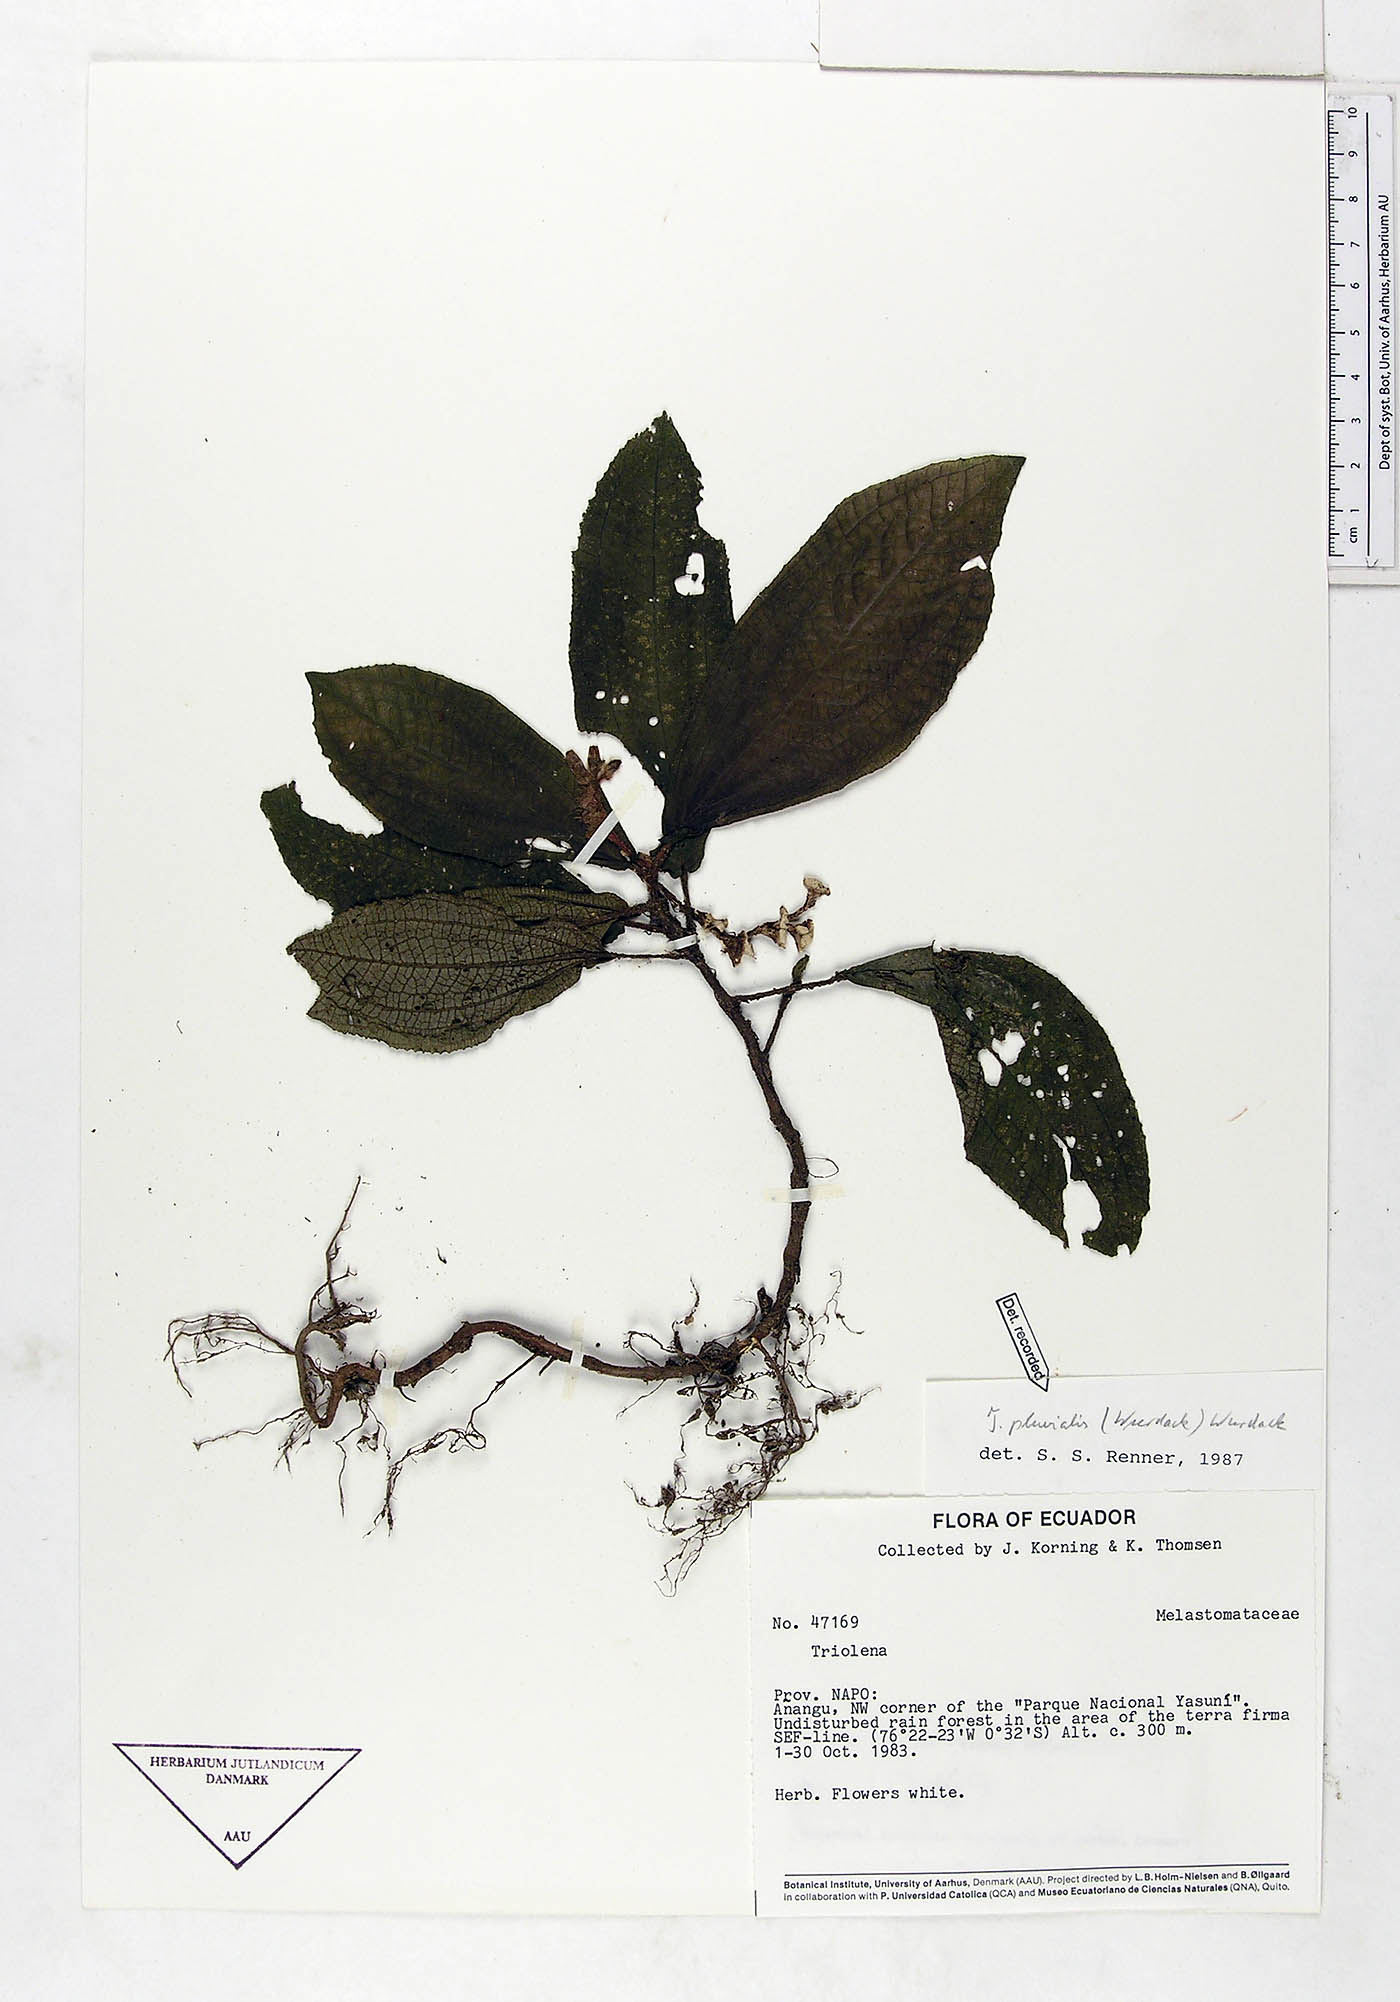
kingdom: Plantae
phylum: Tracheophyta
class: Magnoliopsida
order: Myrtales
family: Melastomataceae
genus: Triolena
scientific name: Triolena pluvialis
